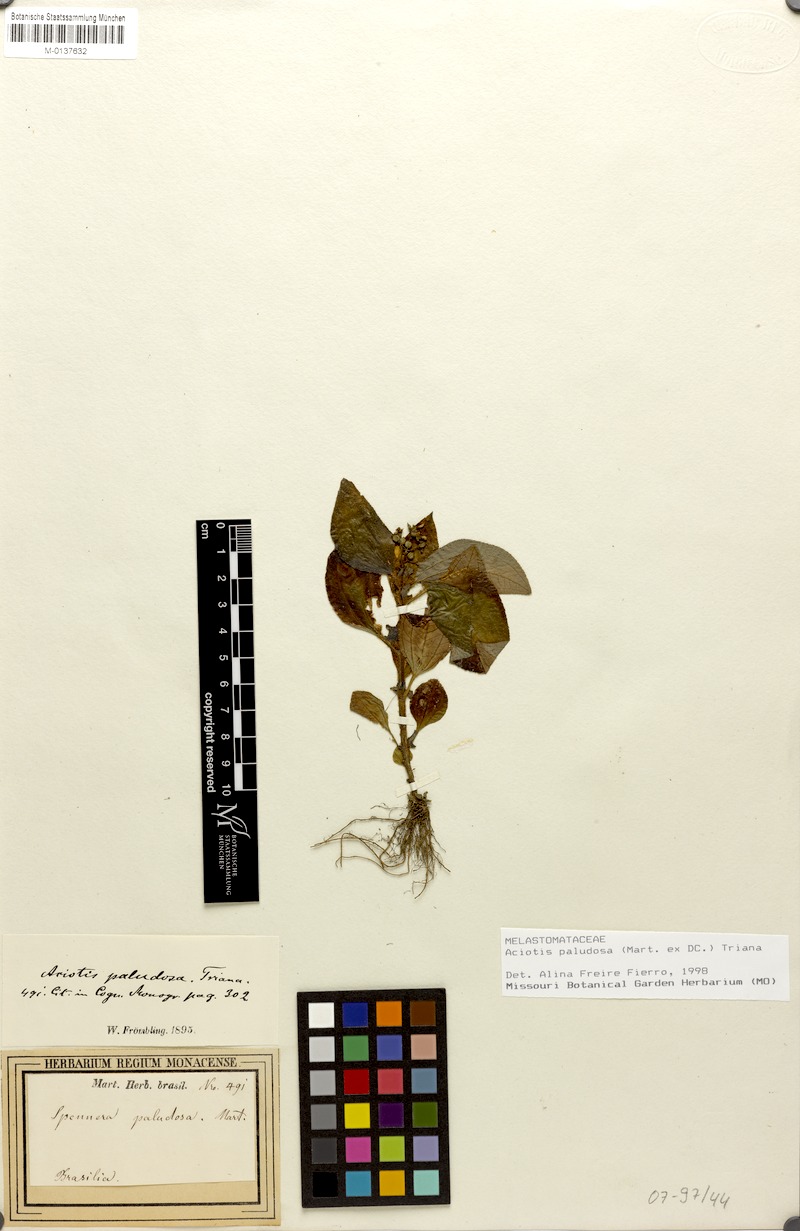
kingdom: Plantae
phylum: Tracheophyta
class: Magnoliopsida
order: Myrtales
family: Melastomataceae
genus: Aciotis
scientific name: Aciotis paludosa
